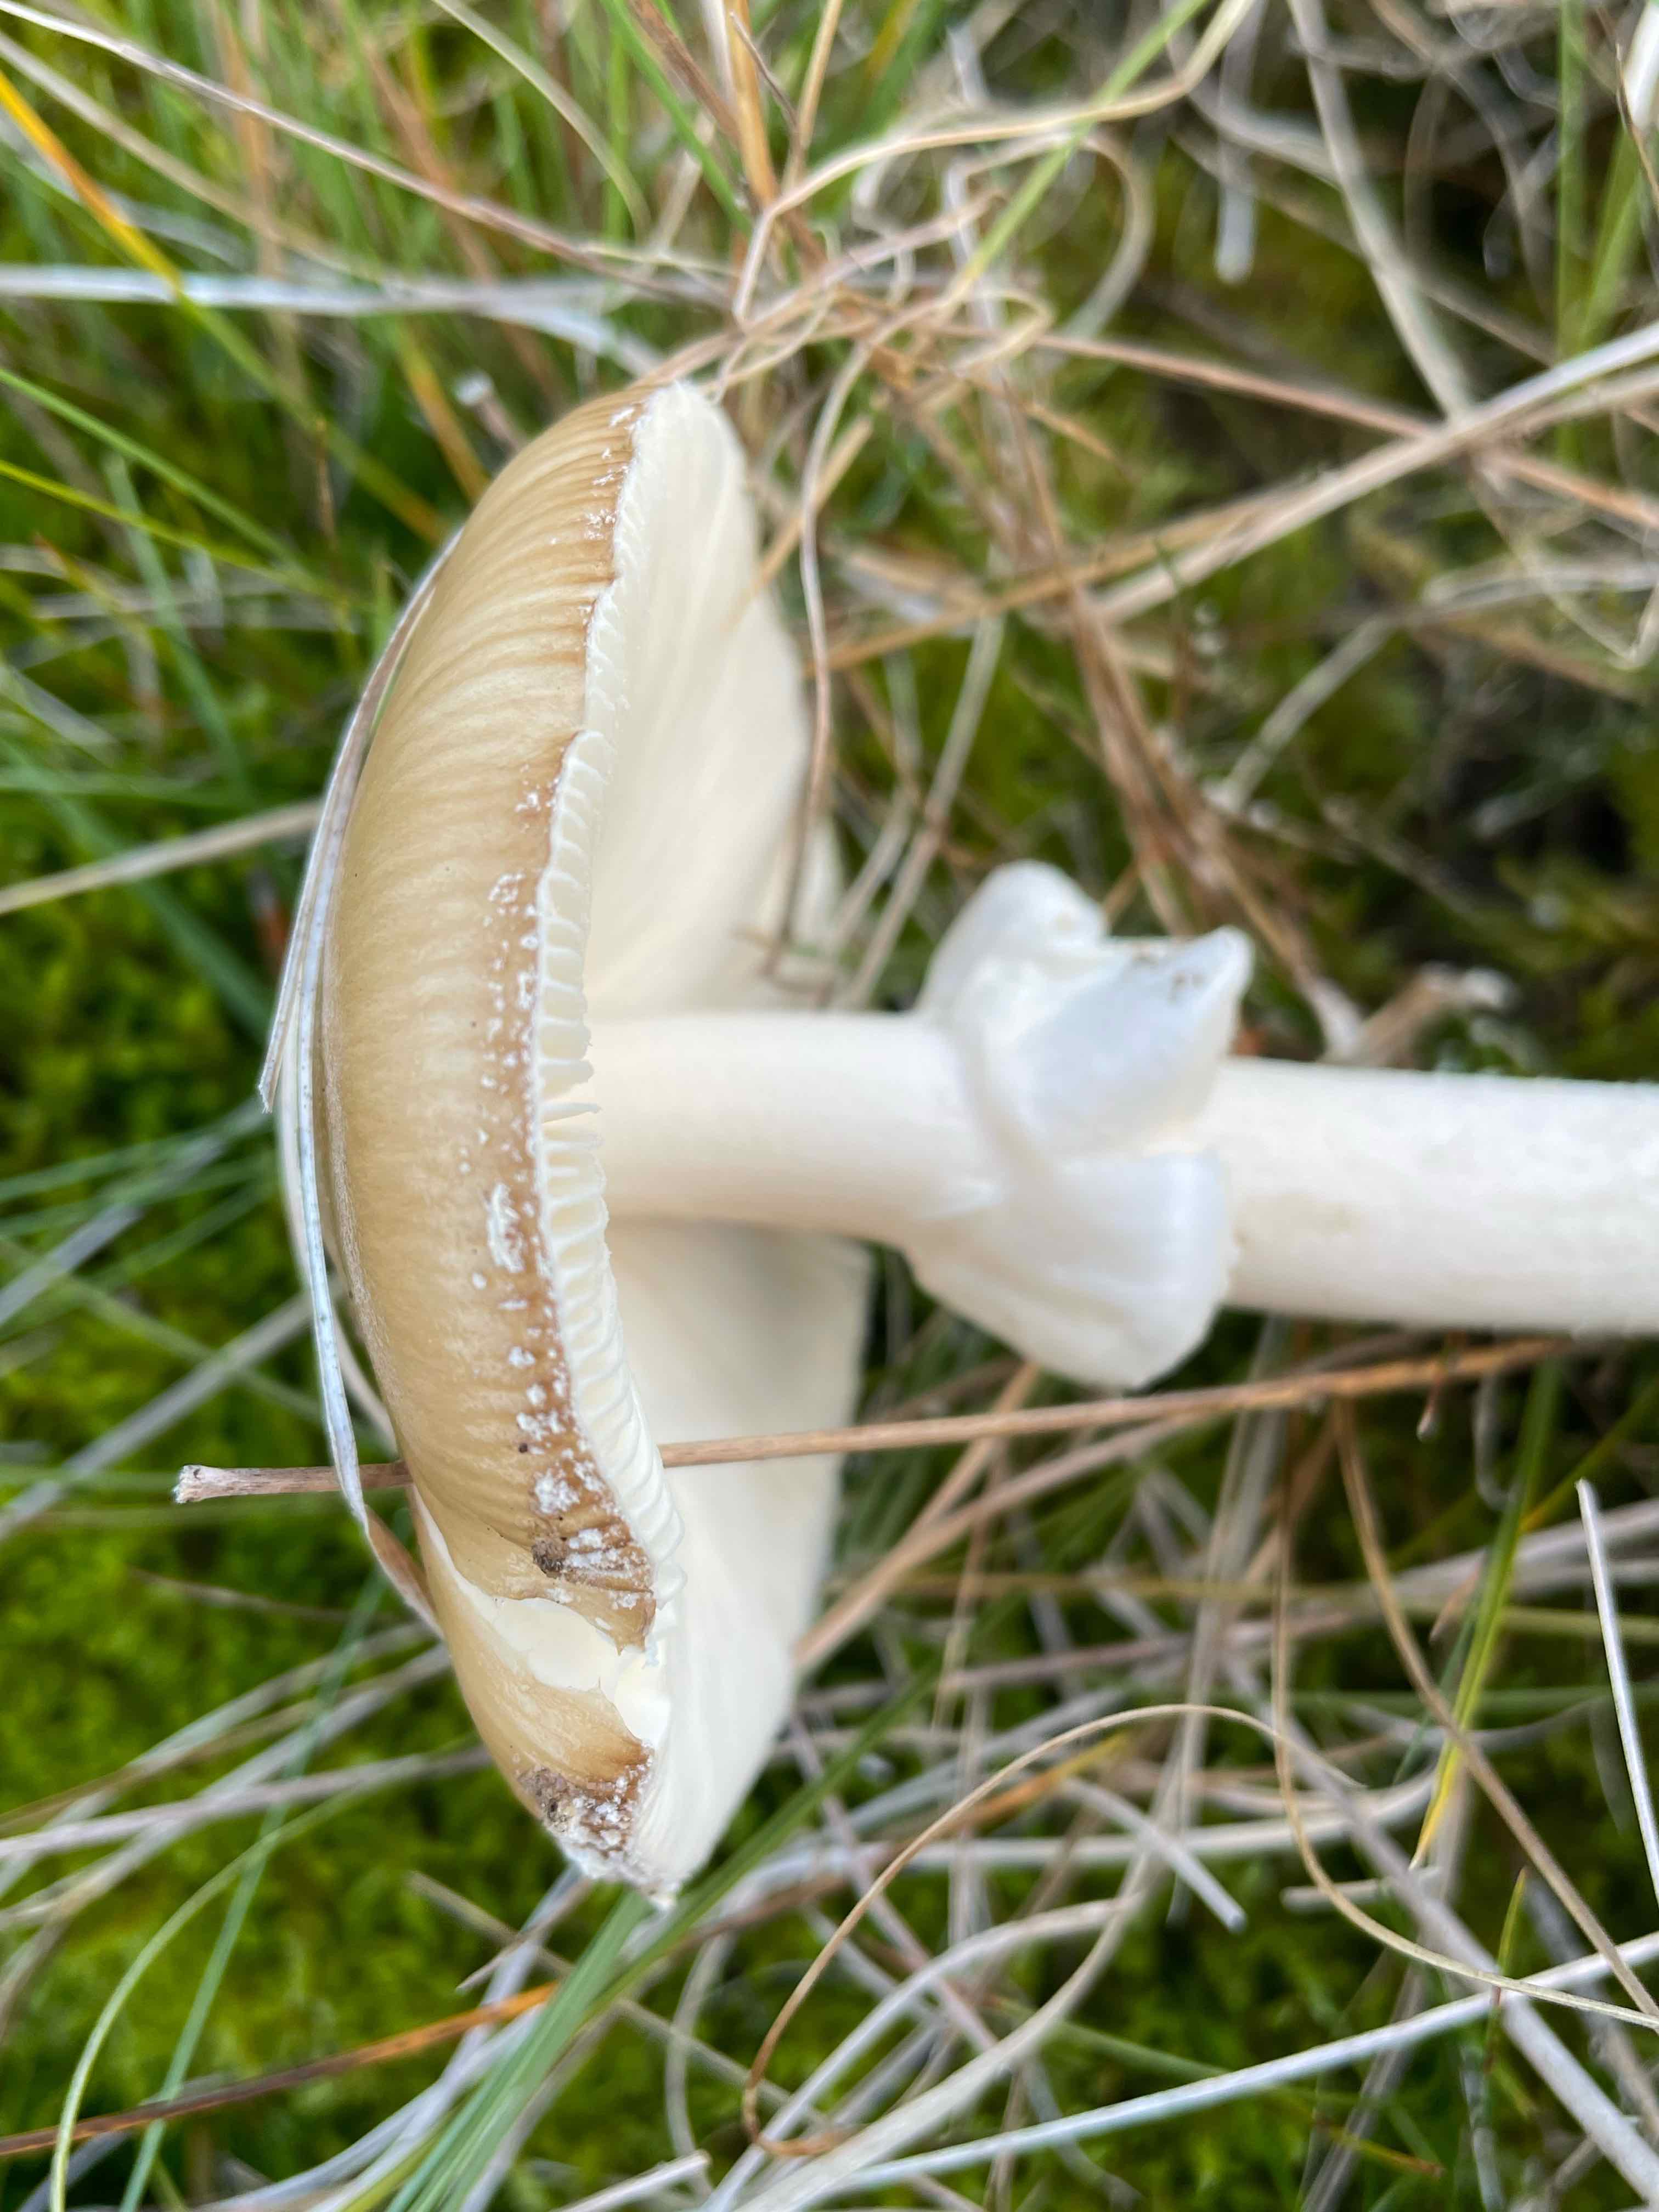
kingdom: Fungi
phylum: Basidiomycota
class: Agaricomycetes
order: Agaricales
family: Amanitaceae
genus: Amanita
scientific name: Amanita pantherina
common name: panter-fluesvamp
